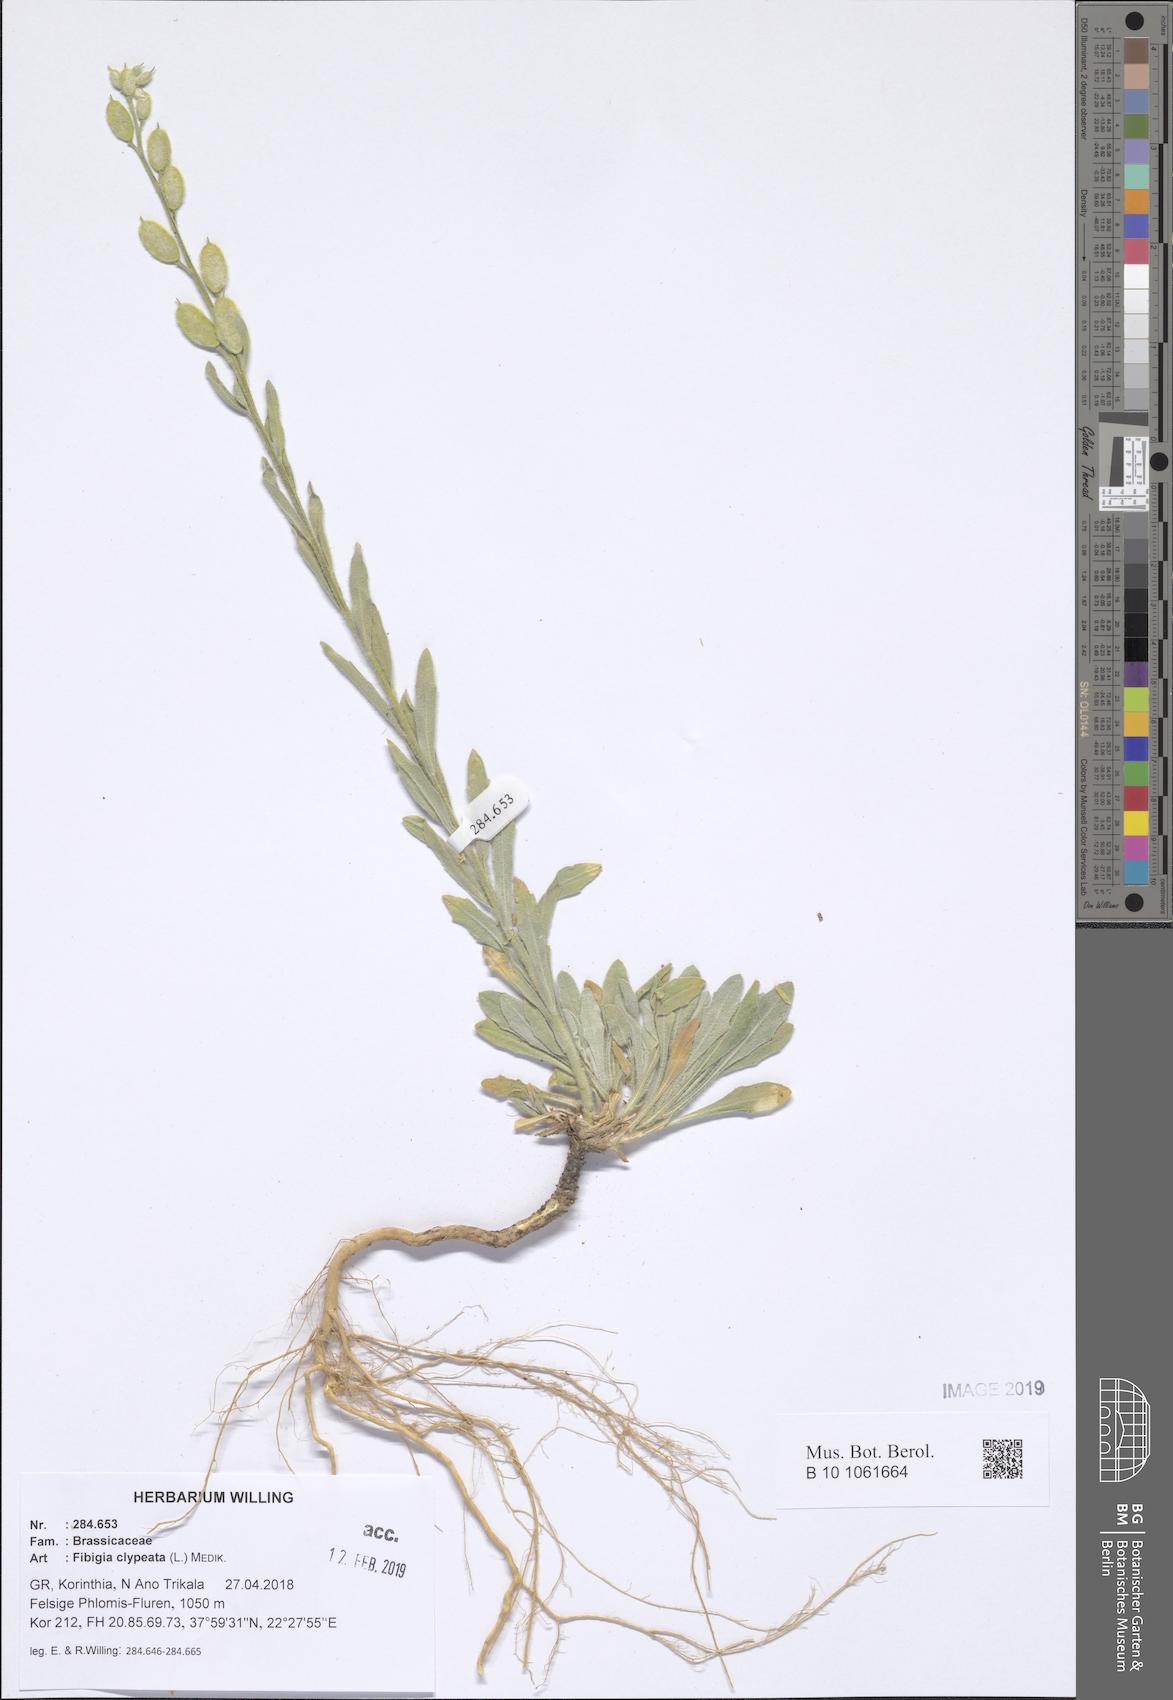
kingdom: Plantae
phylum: Tracheophyta
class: Magnoliopsida
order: Brassicales
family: Brassicaceae
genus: Fibigia
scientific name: Fibigia clypeata
